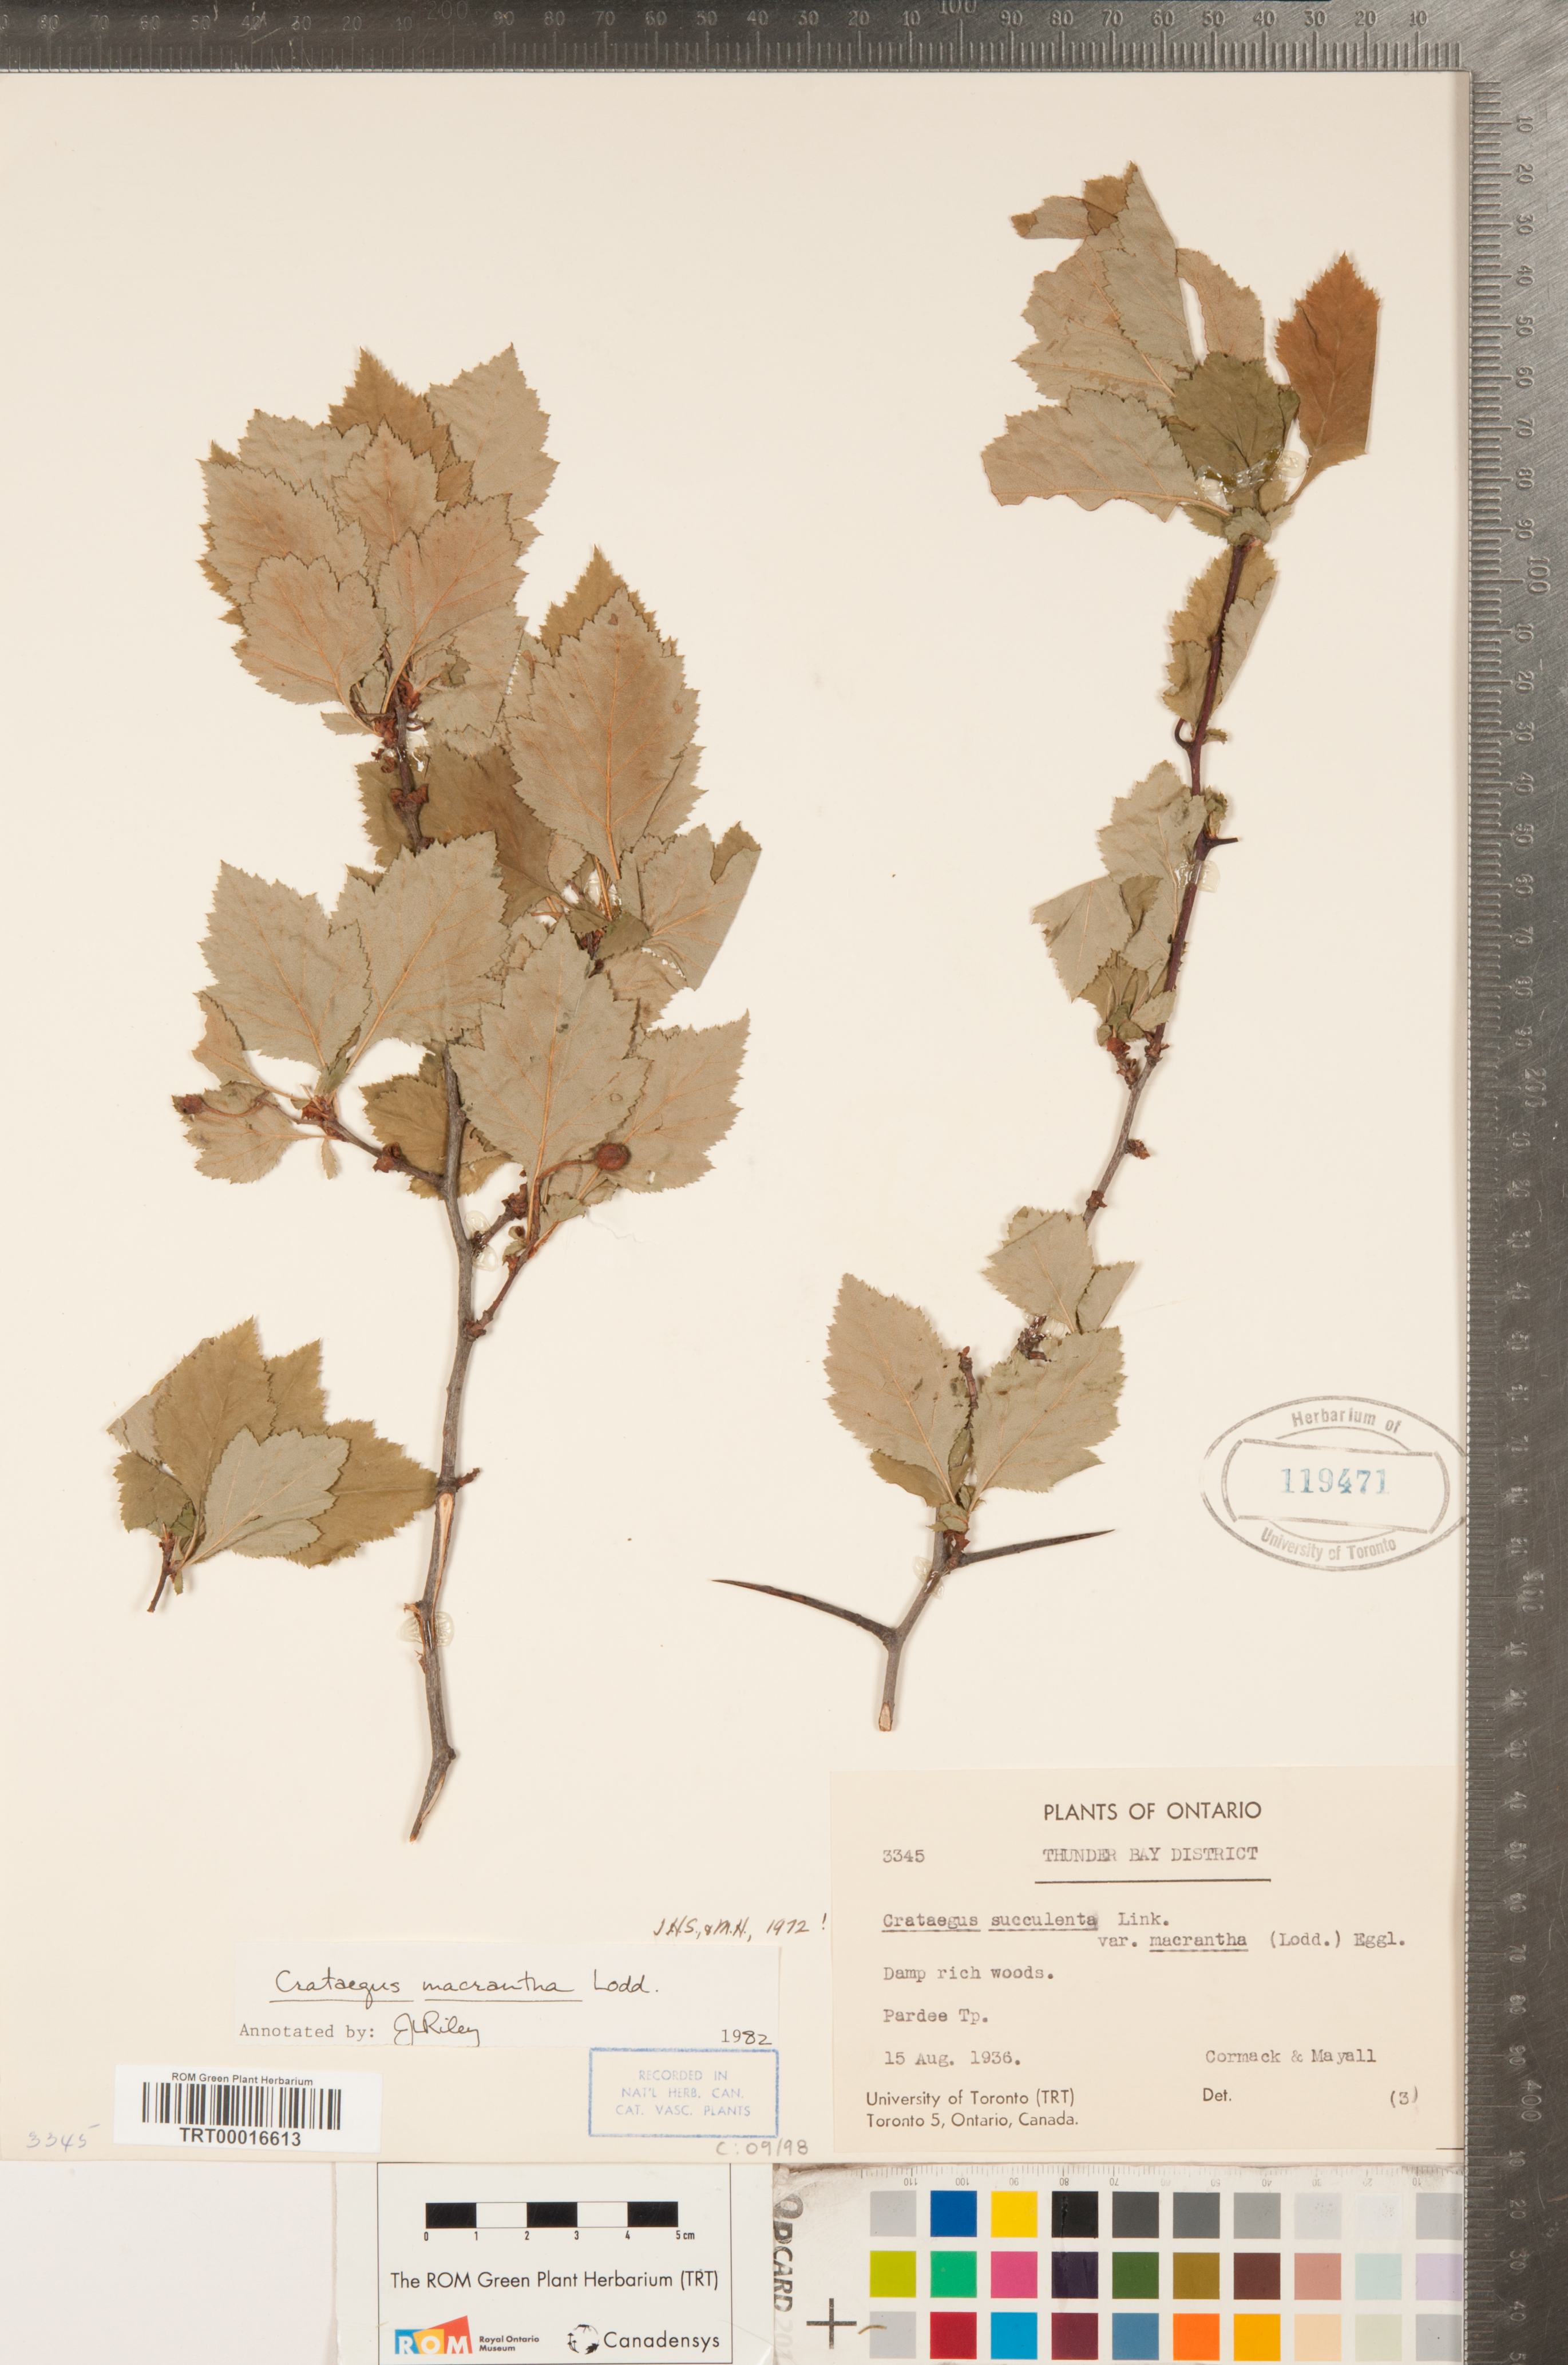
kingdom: Plantae
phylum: Tracheophyta
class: Magnoliopsida
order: Rosales
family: Rosaceae
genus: Crataegus
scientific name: Crataegus macracantha
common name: Large-thorn hawthorn
